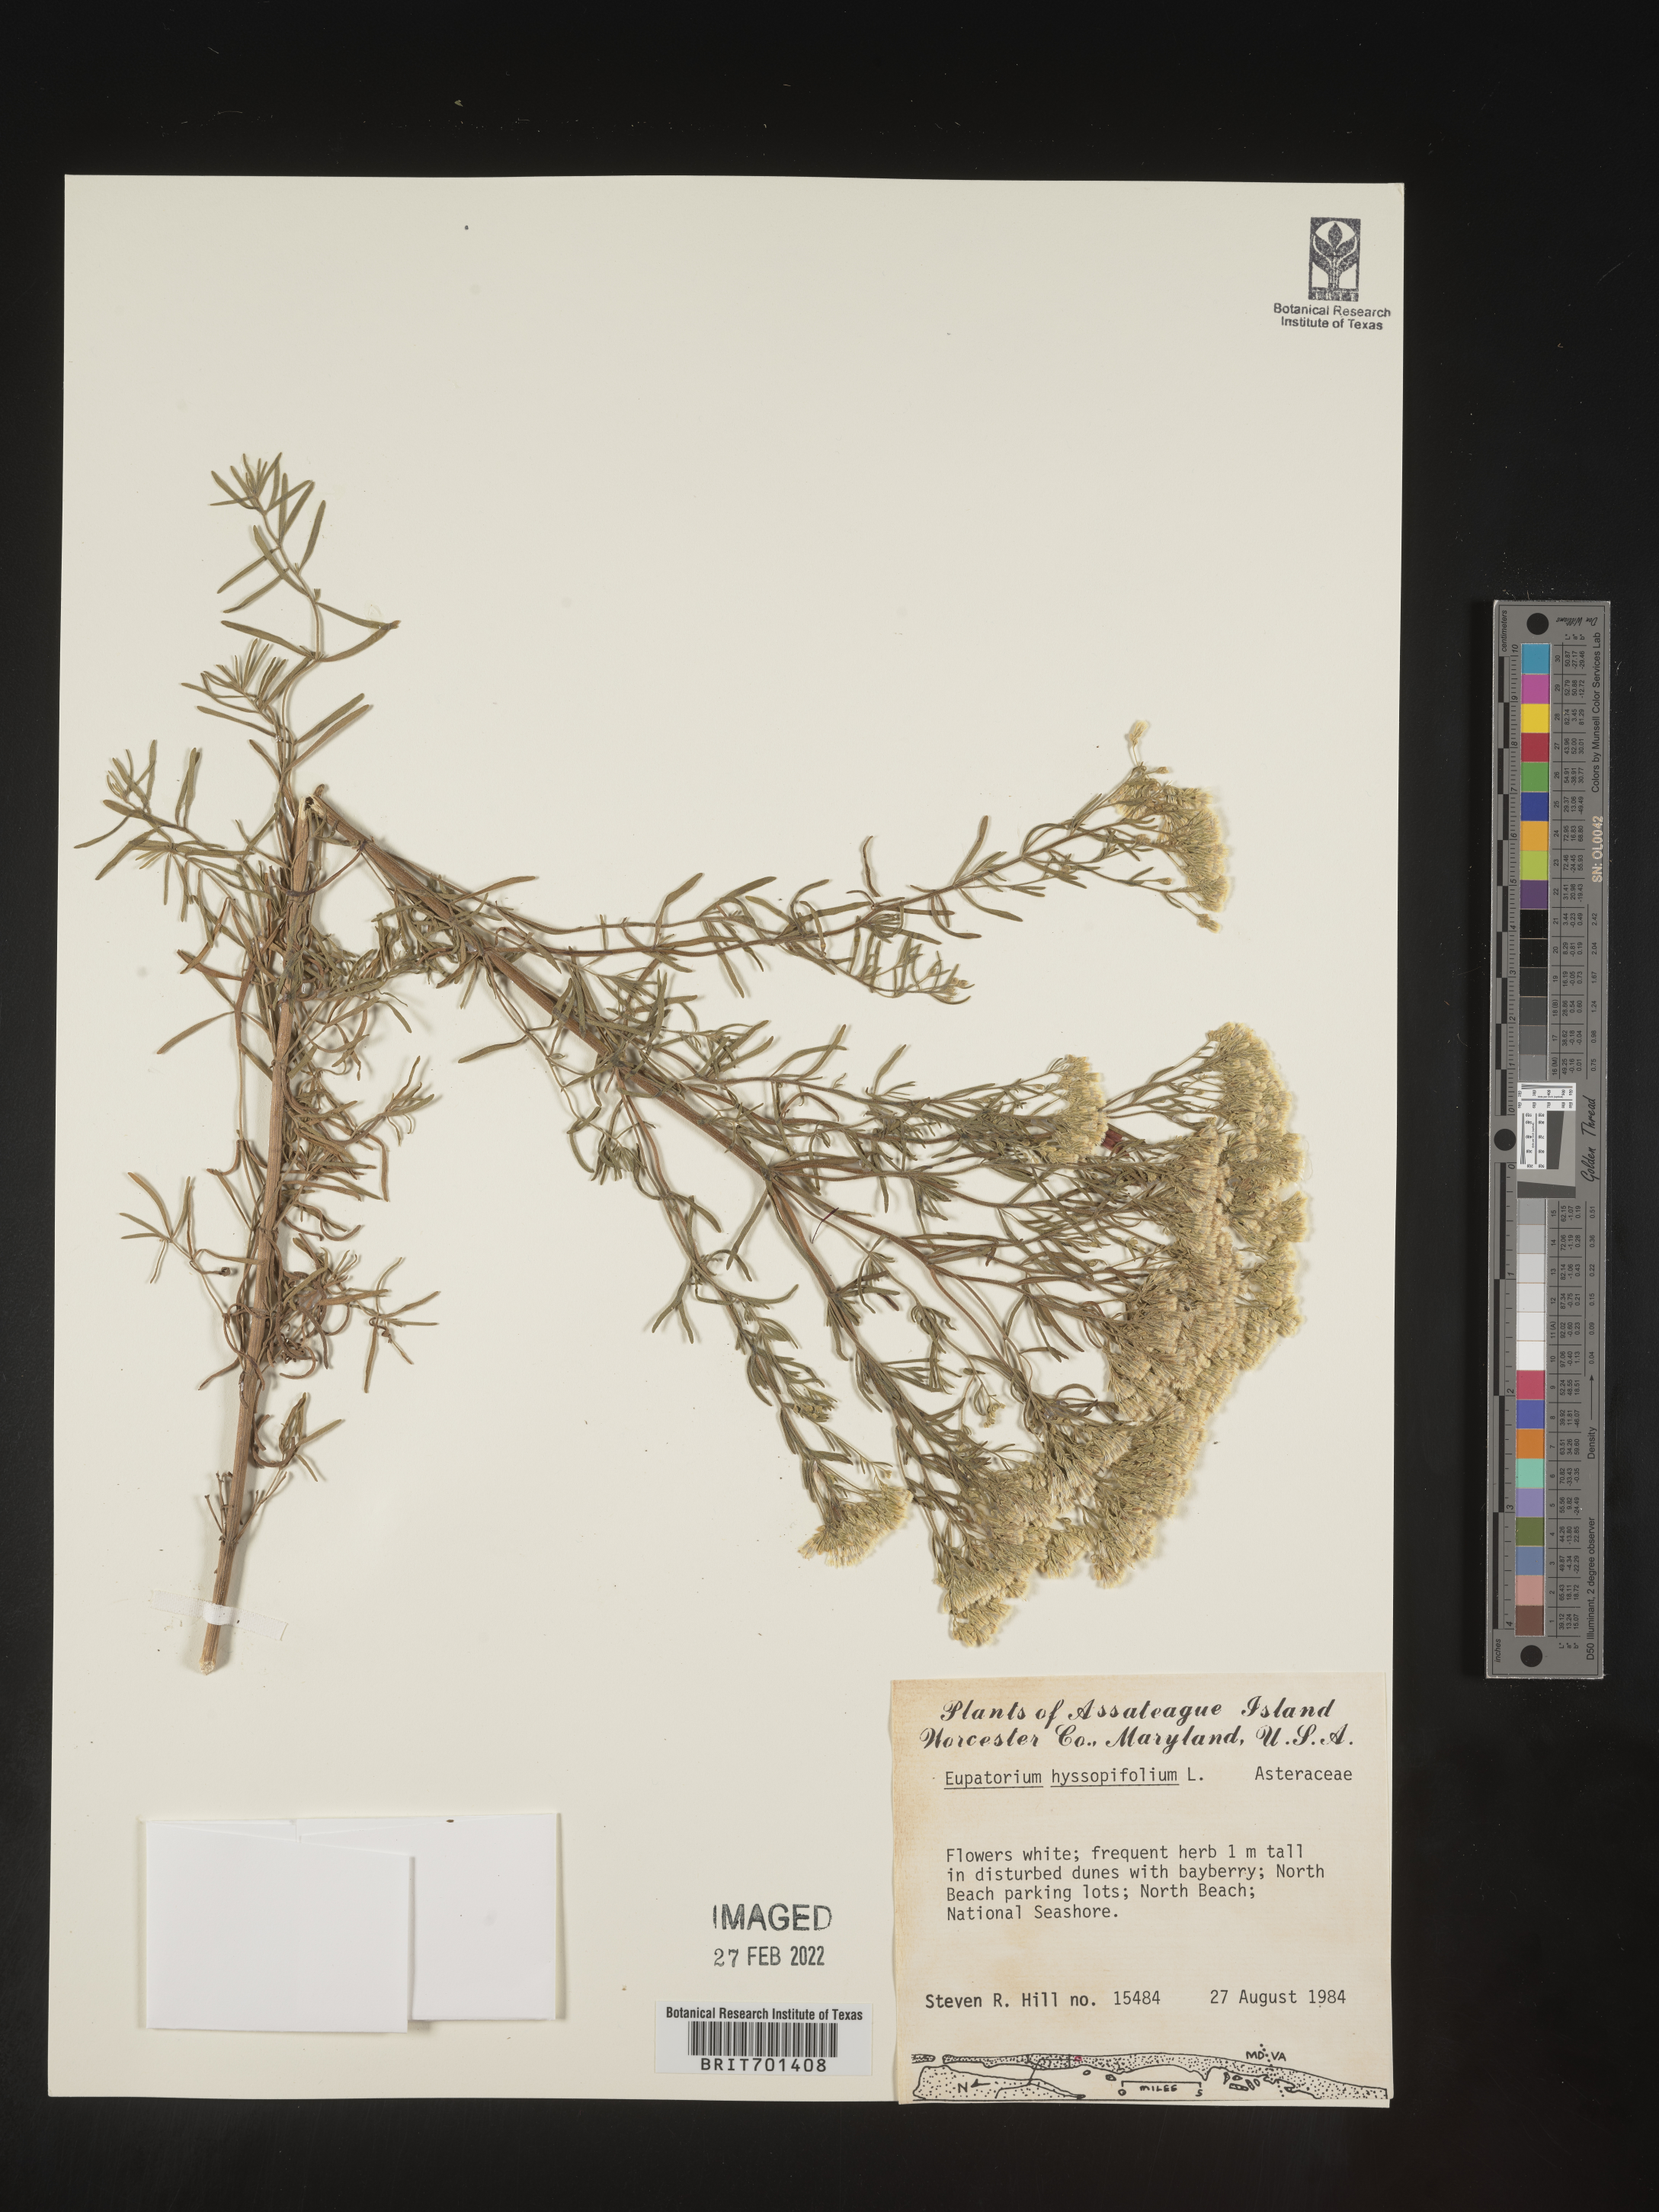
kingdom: Plantae
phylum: Tracheophyta
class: Magnoliopsida
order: Asterales
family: Asteraceae
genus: Eupatorium
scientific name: Eupatorium hyssopifolium
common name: Hyssop-leaf thoroughwort
